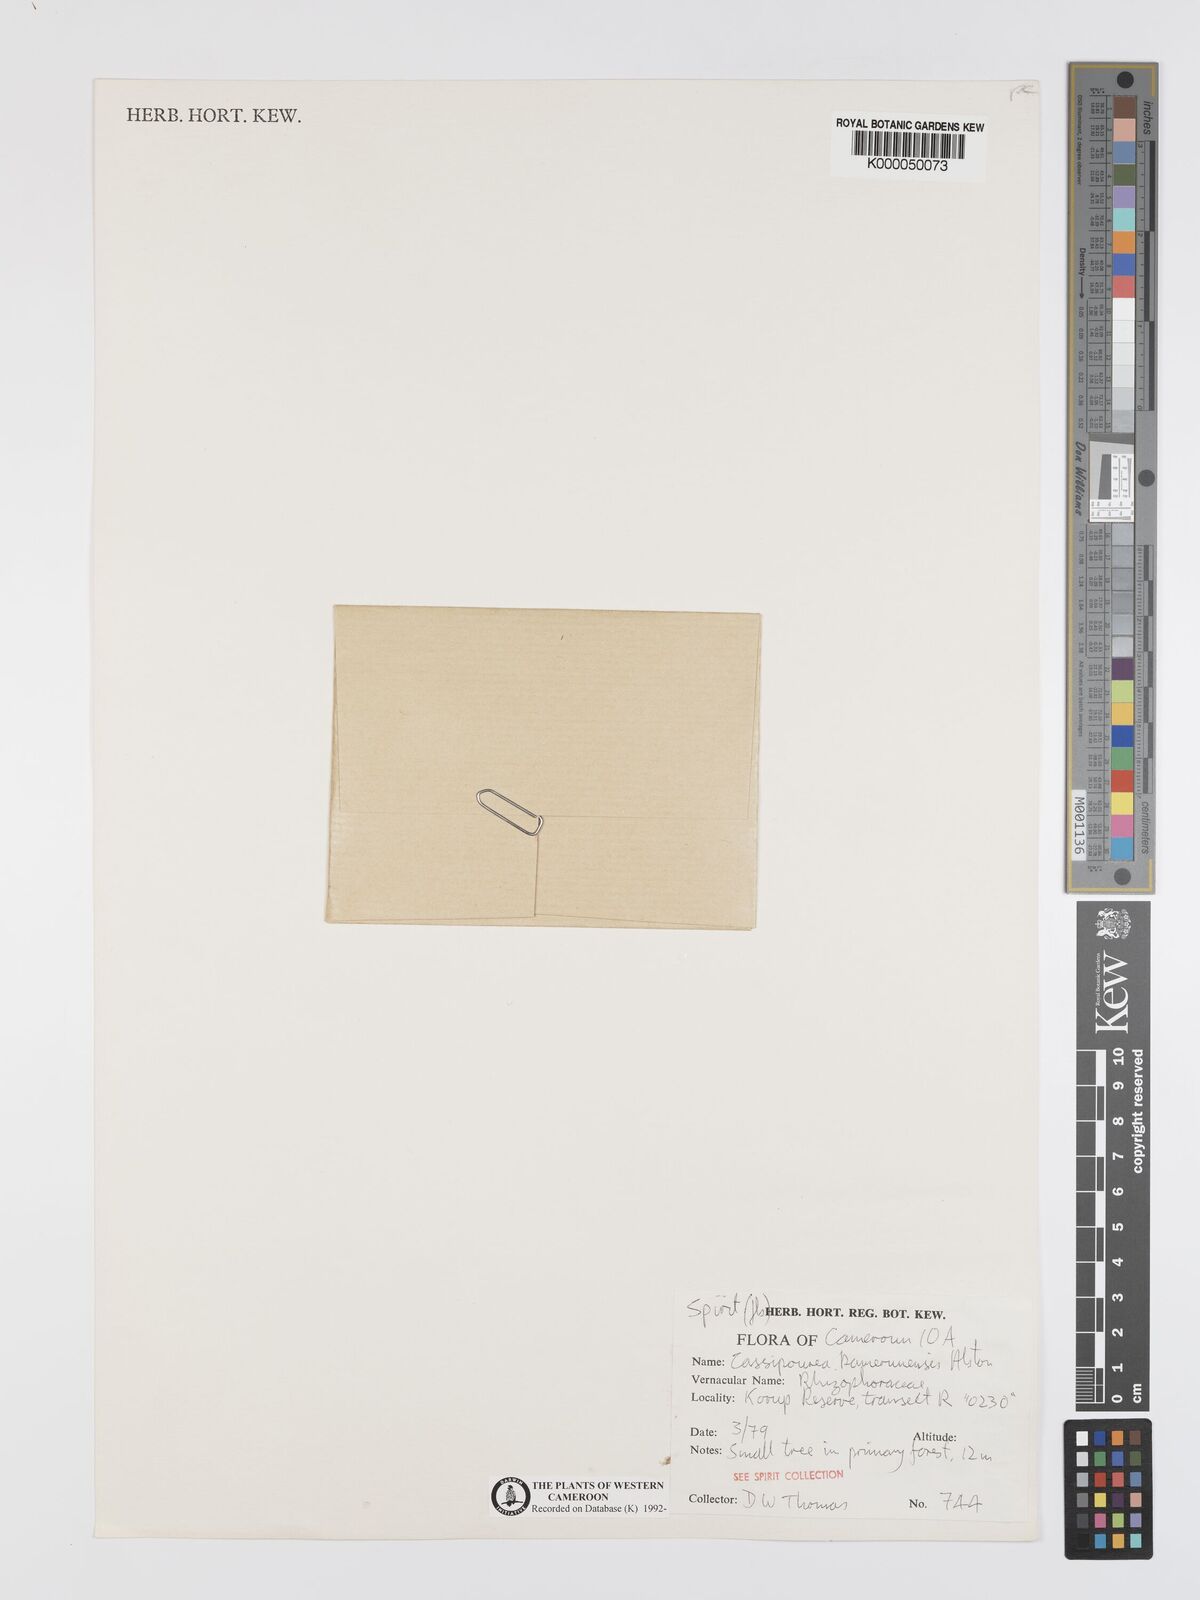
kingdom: Plantae
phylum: Tracheophyta
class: Magnoliopsida
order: Malpighiales
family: Rhizophoraceae
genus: Cassipourea
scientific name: Cassipourea schizocalyx
